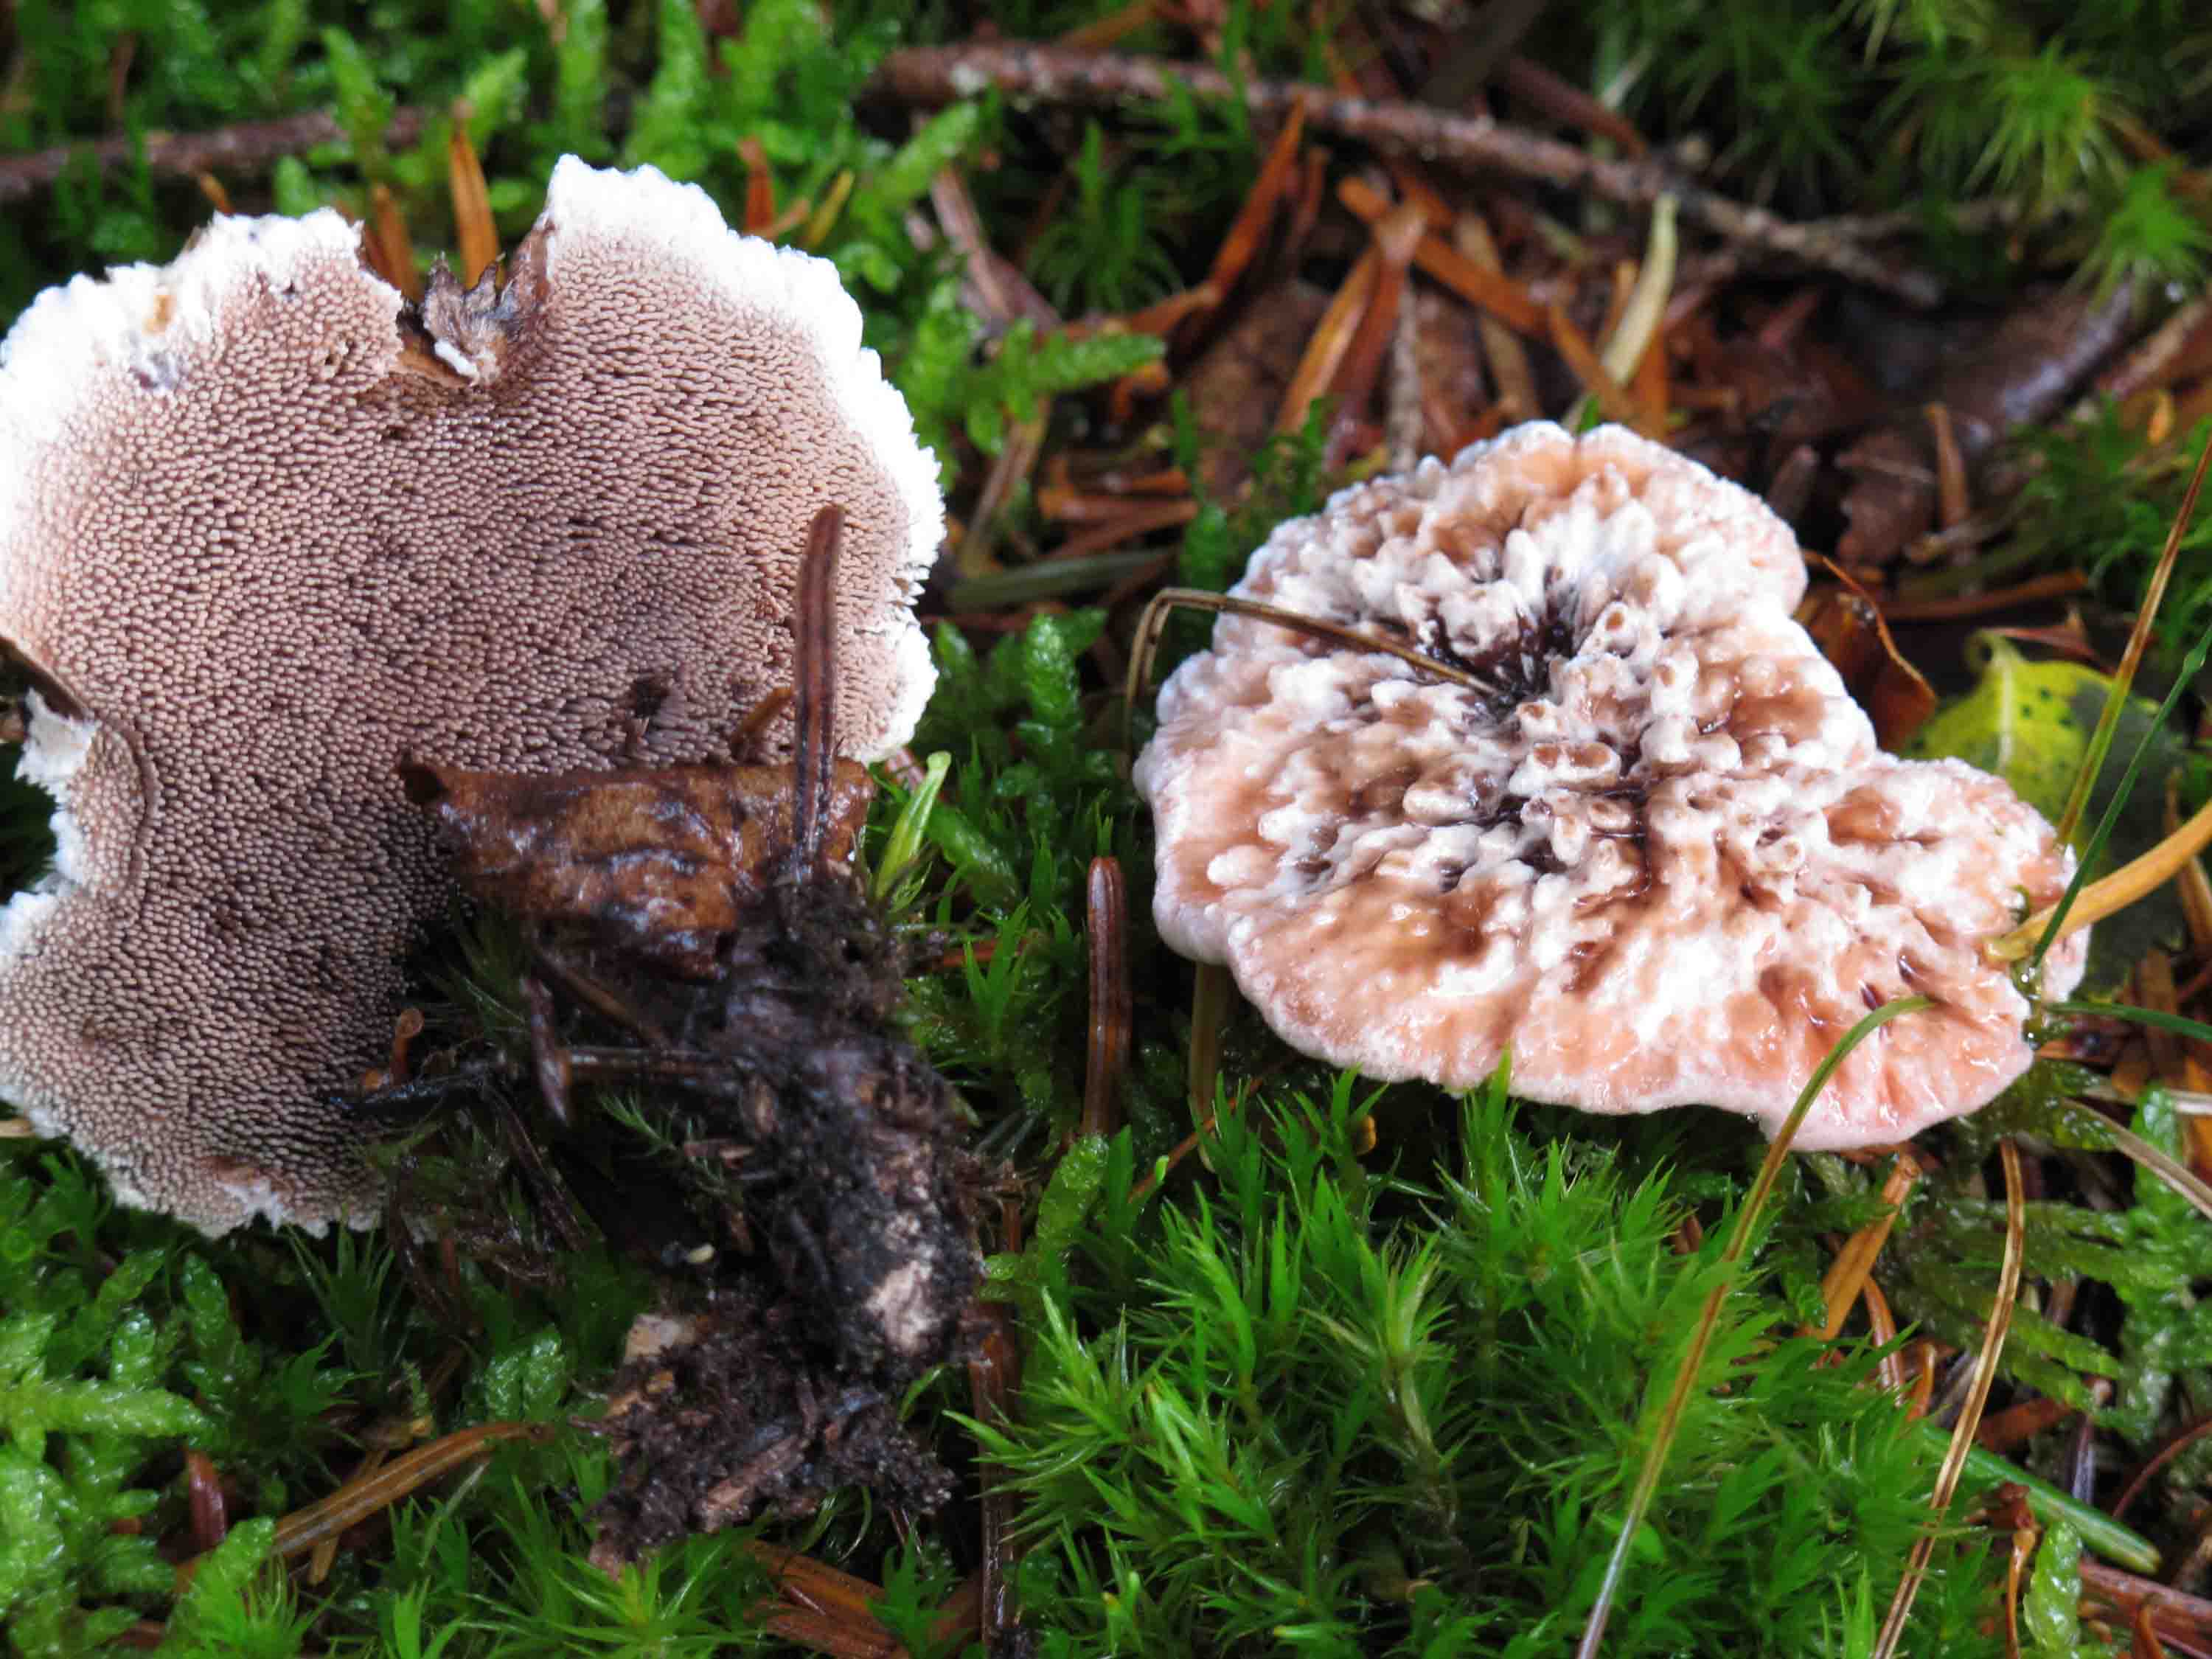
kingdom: Fungi
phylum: Basidiomycota
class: Agaricomycetes
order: Thelephorales
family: Bankeraceae
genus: Hydnellum
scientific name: Hydnellum peckii
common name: bitter korkpigsvamp
